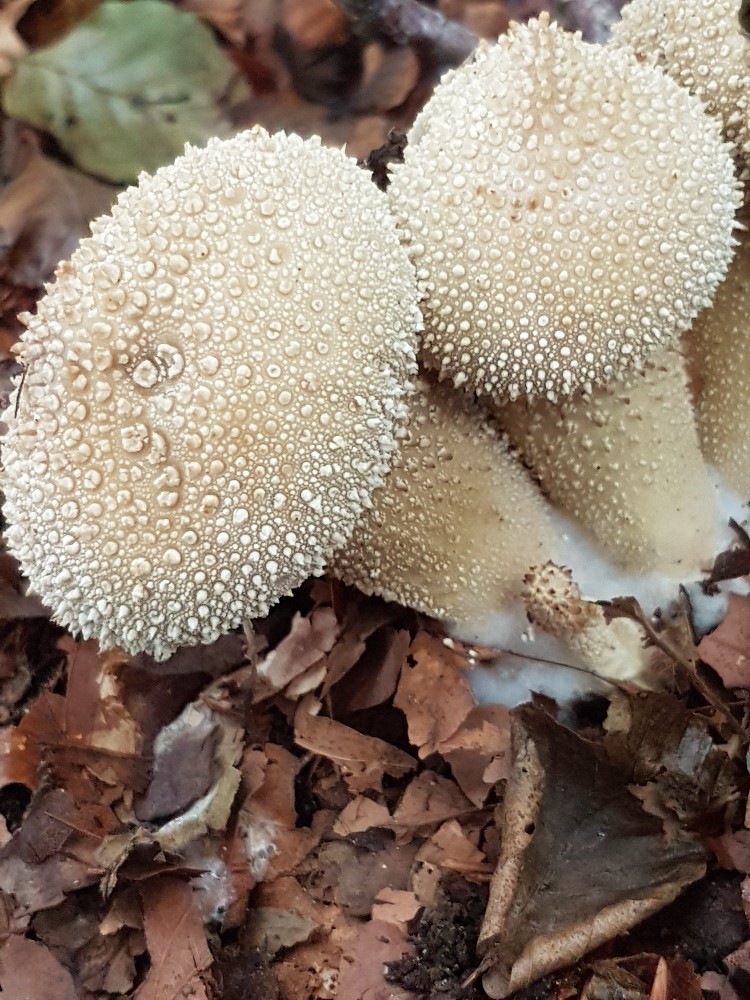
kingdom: Fungi
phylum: Basidiomycota
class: Agaricomycetes
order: Agaricales
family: Lycoperdaceae
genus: Lycoperdon
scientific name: Lycoperdon perlatum
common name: krystal-støvbold
